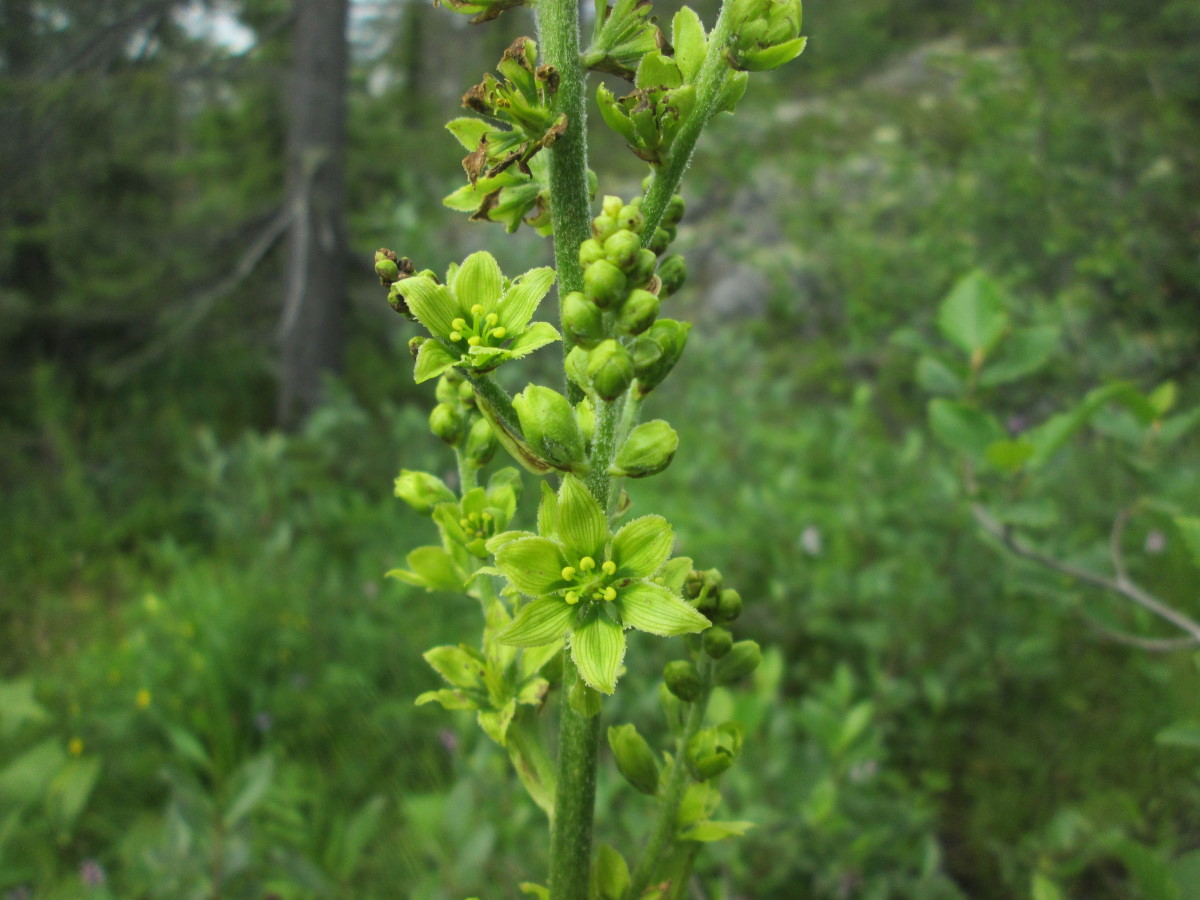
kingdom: Plantae
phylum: Tracheophyta
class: Liliopsida
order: Liliales
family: Melanthiaceae
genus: Veratrum
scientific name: Veratrum lobelianum
